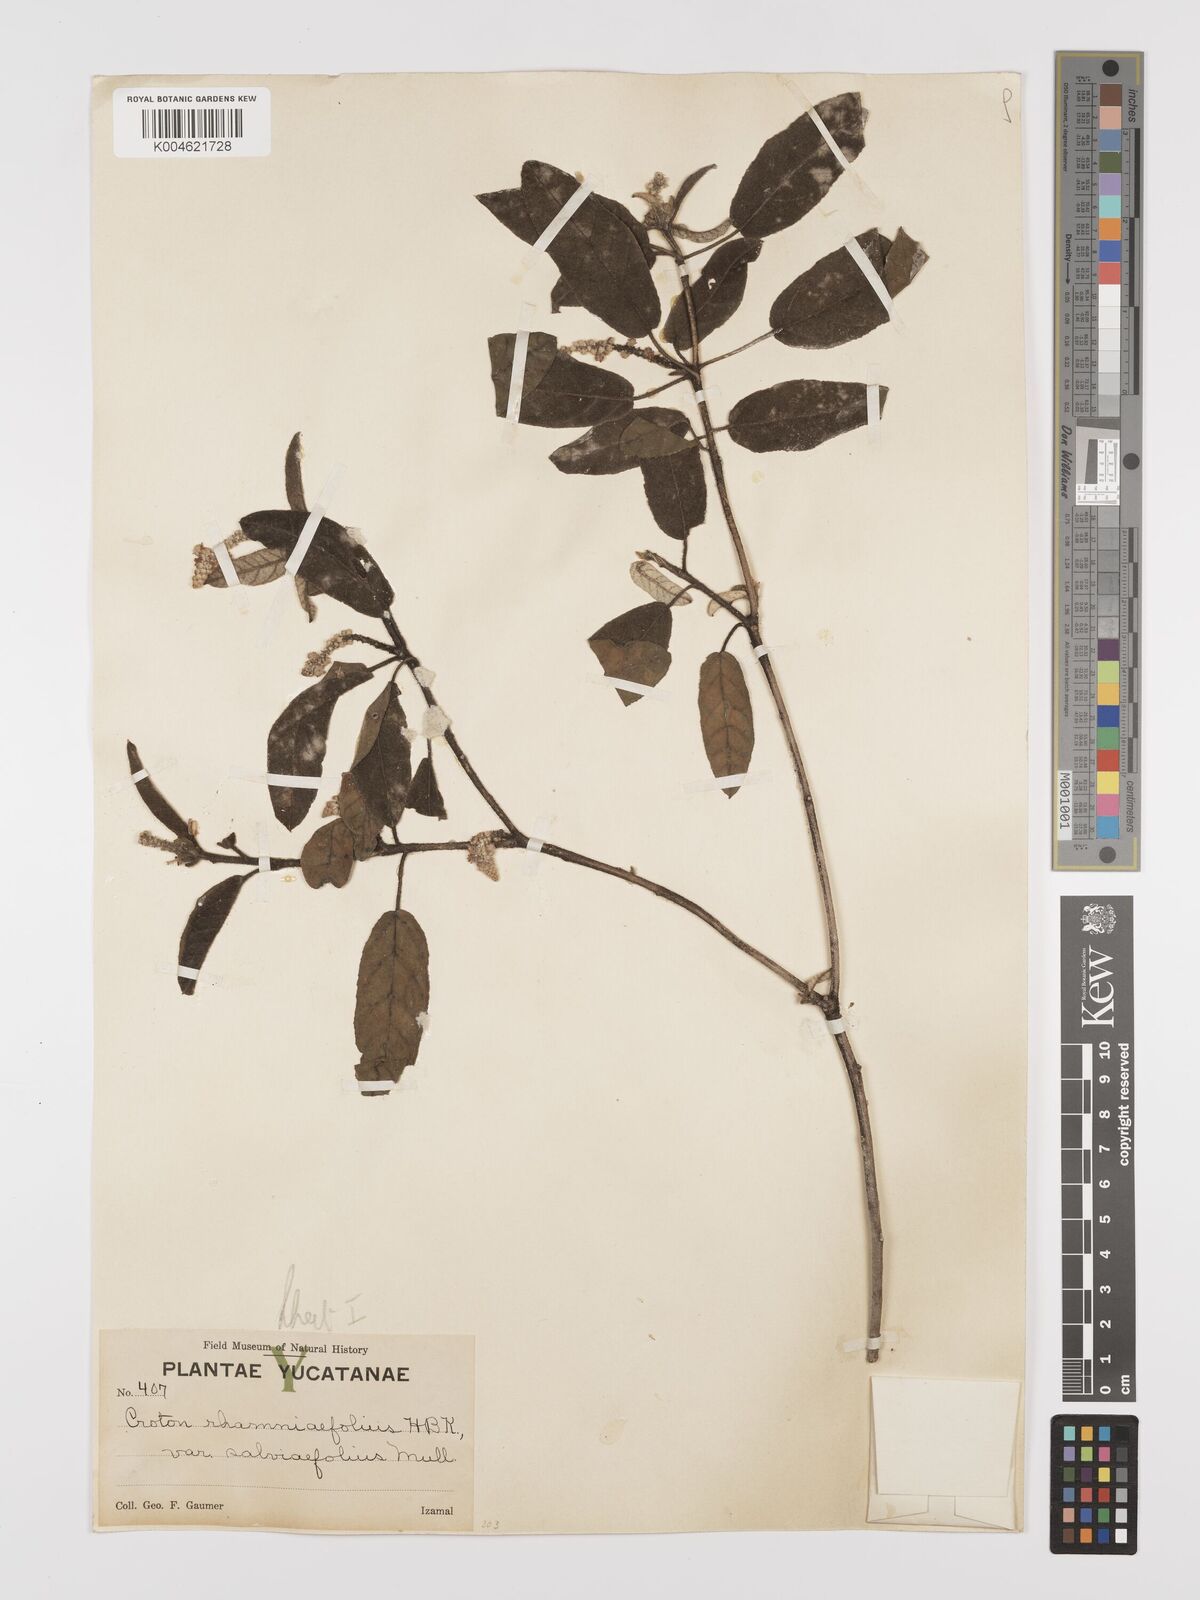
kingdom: Plantae
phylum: Tracheophyta
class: Magnoliopsida
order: Malpighiales
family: Euphorbiaceae
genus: Croton
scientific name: Croton conduplicatus
